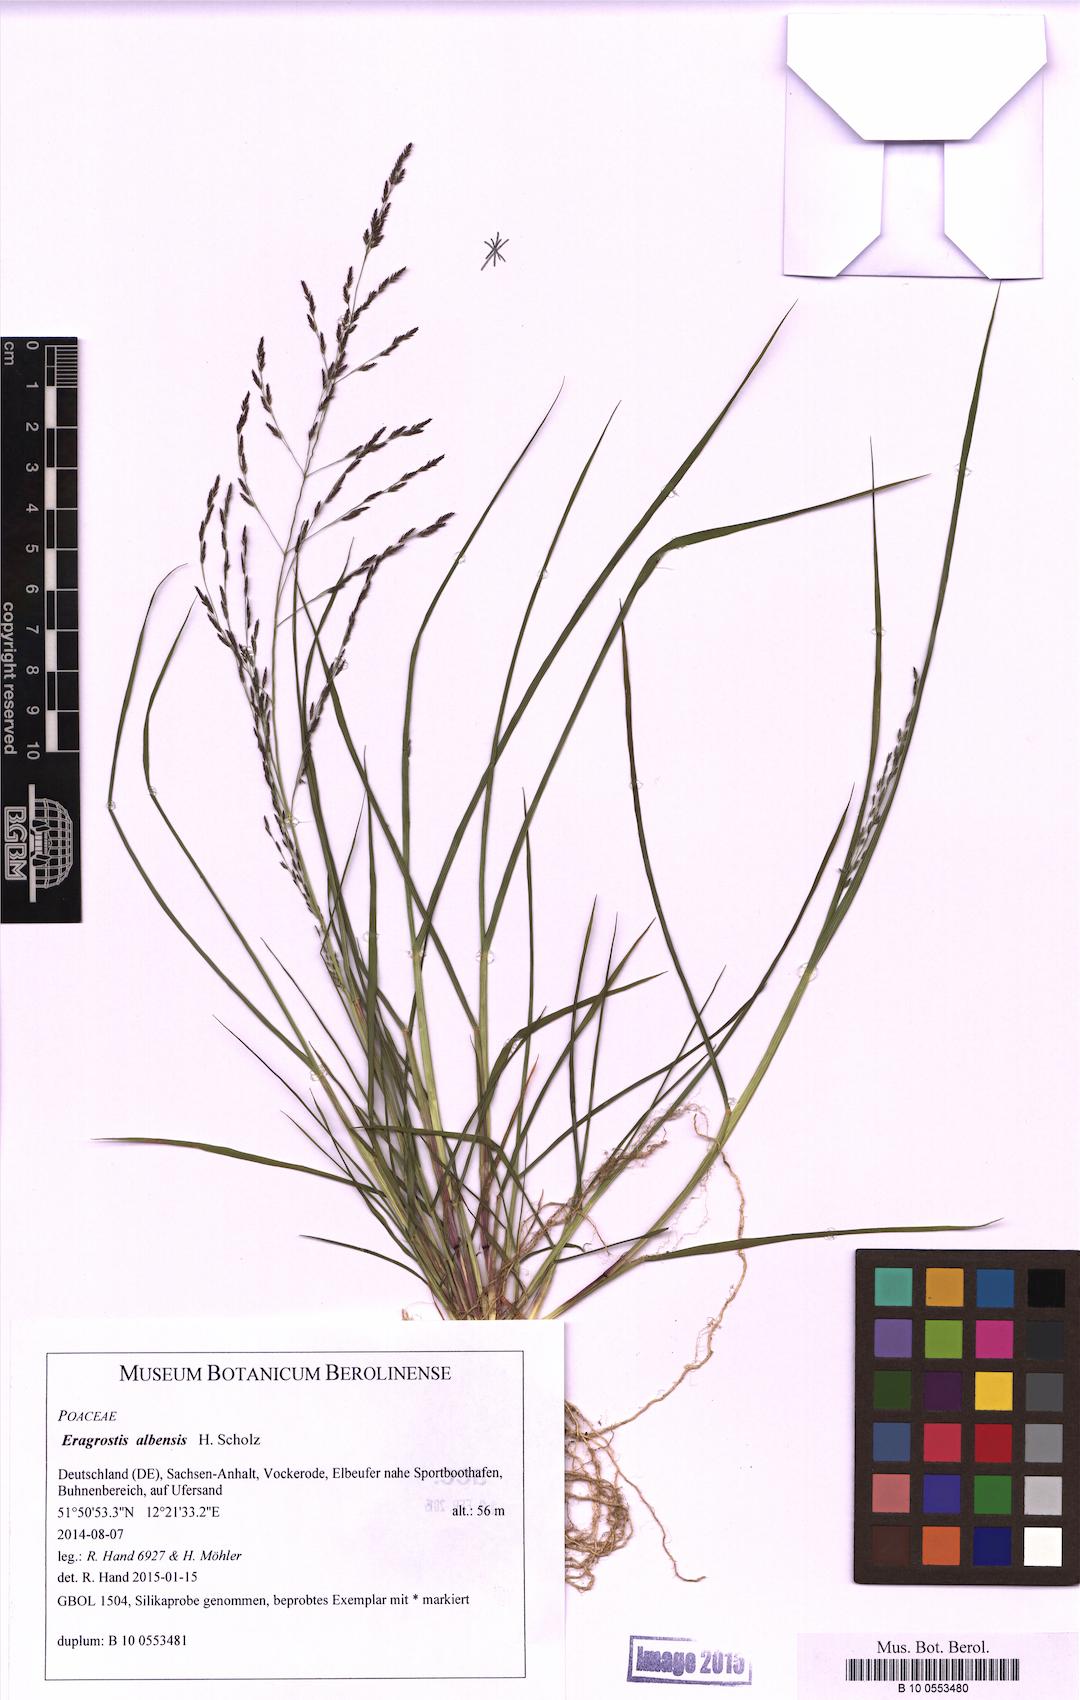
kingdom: Plantae
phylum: Tracheophyta
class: Liliopsida
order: Poales
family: Poaceae
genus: Eragrostis
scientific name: Eragrostis pilosa
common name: Indian lovegrass
